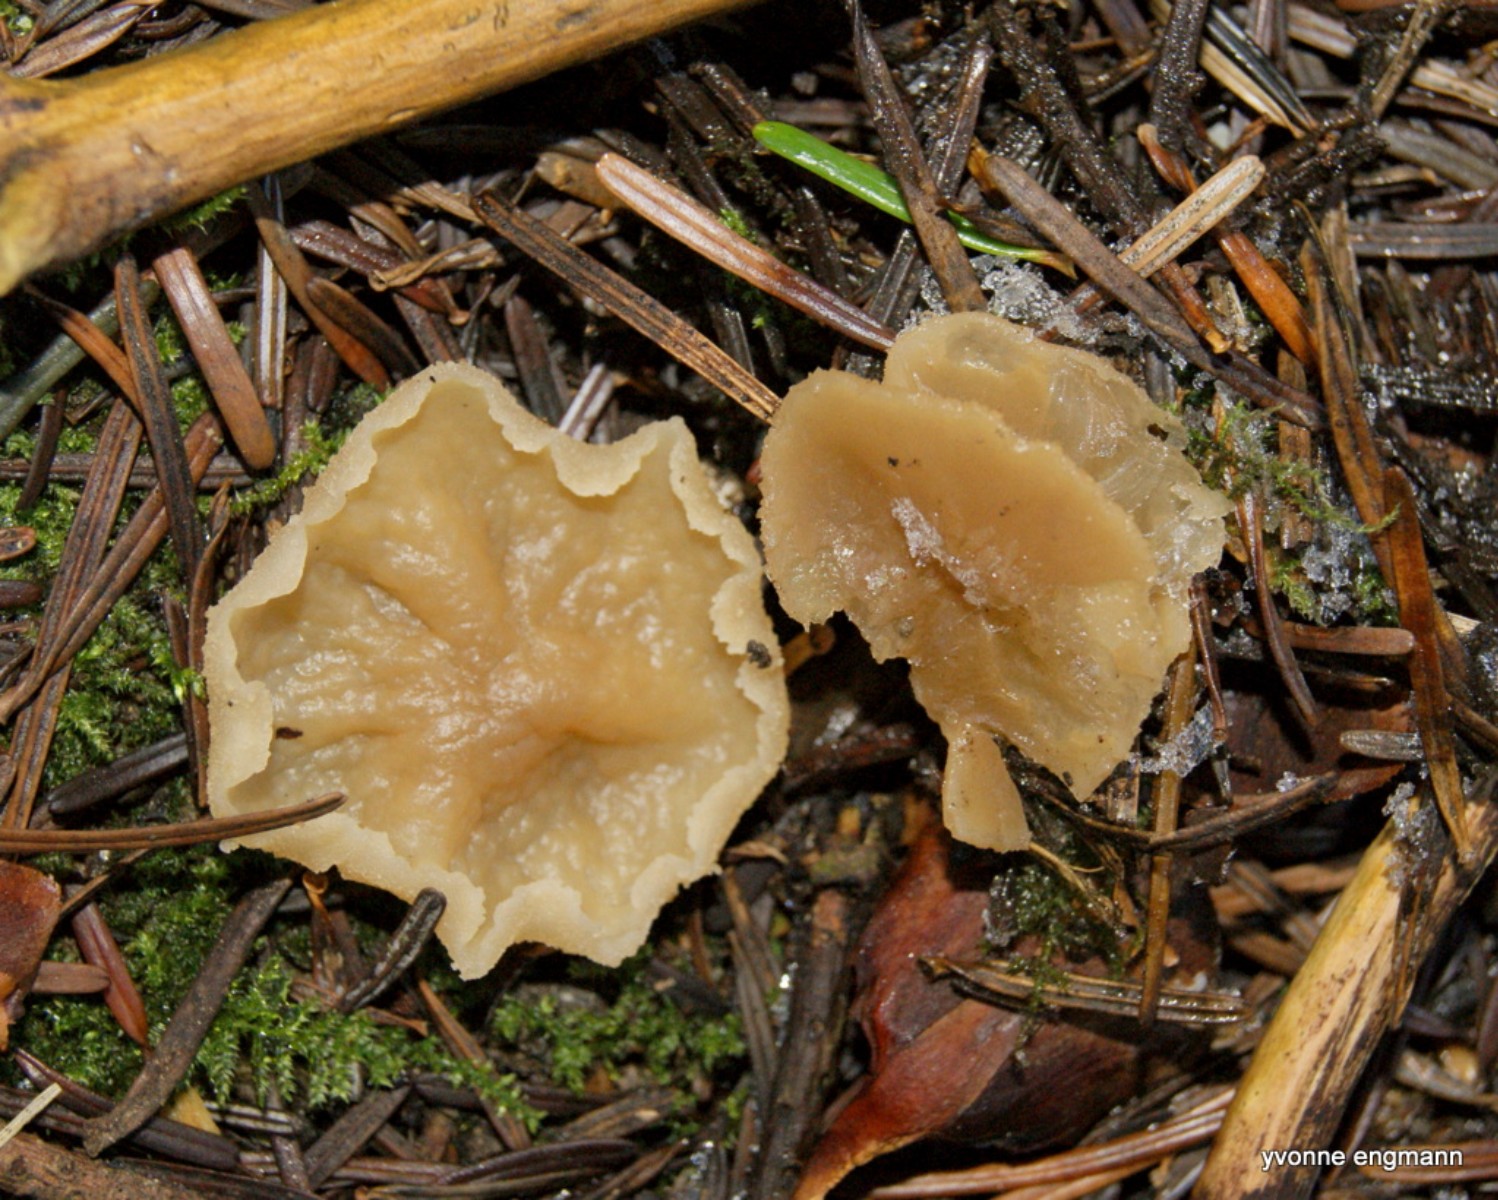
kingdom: Fungi
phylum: Ascomycota
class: Pezizomycetes
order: Pezizales
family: Pezizaceae
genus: Peziza
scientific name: Peziza
